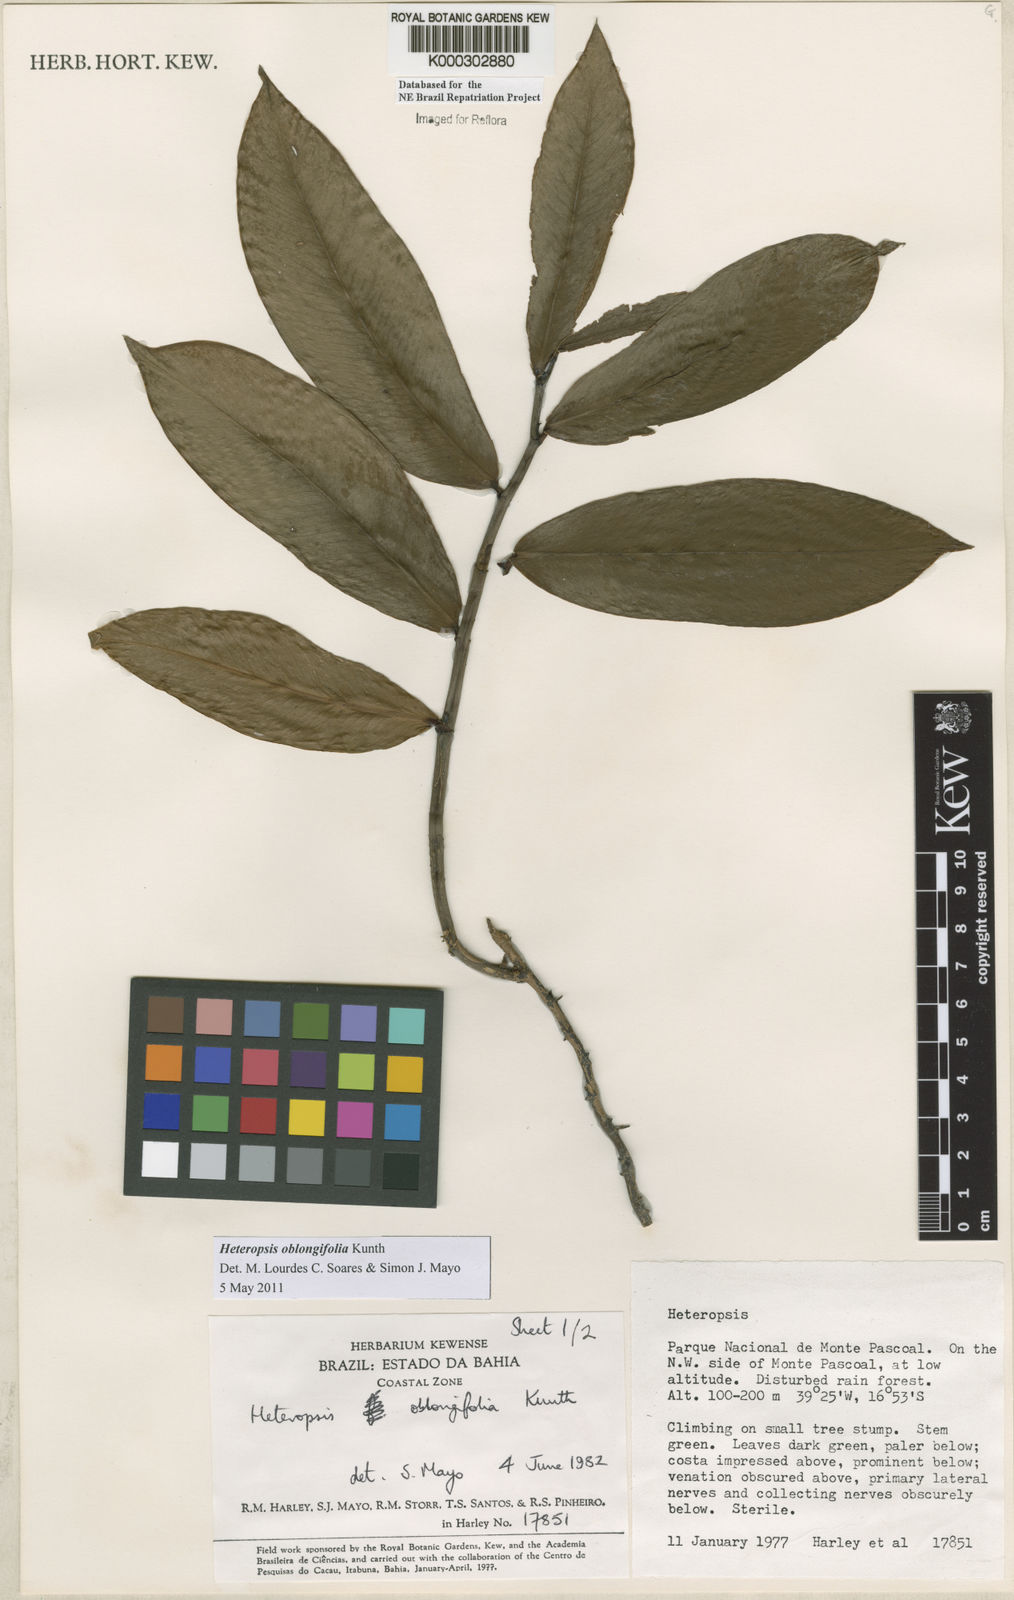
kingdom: Plantae
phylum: Tracheophyta
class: Liliopsida
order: Alismatales
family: Araceae
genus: Heteropsis
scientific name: Heteropsis oblongifolia
